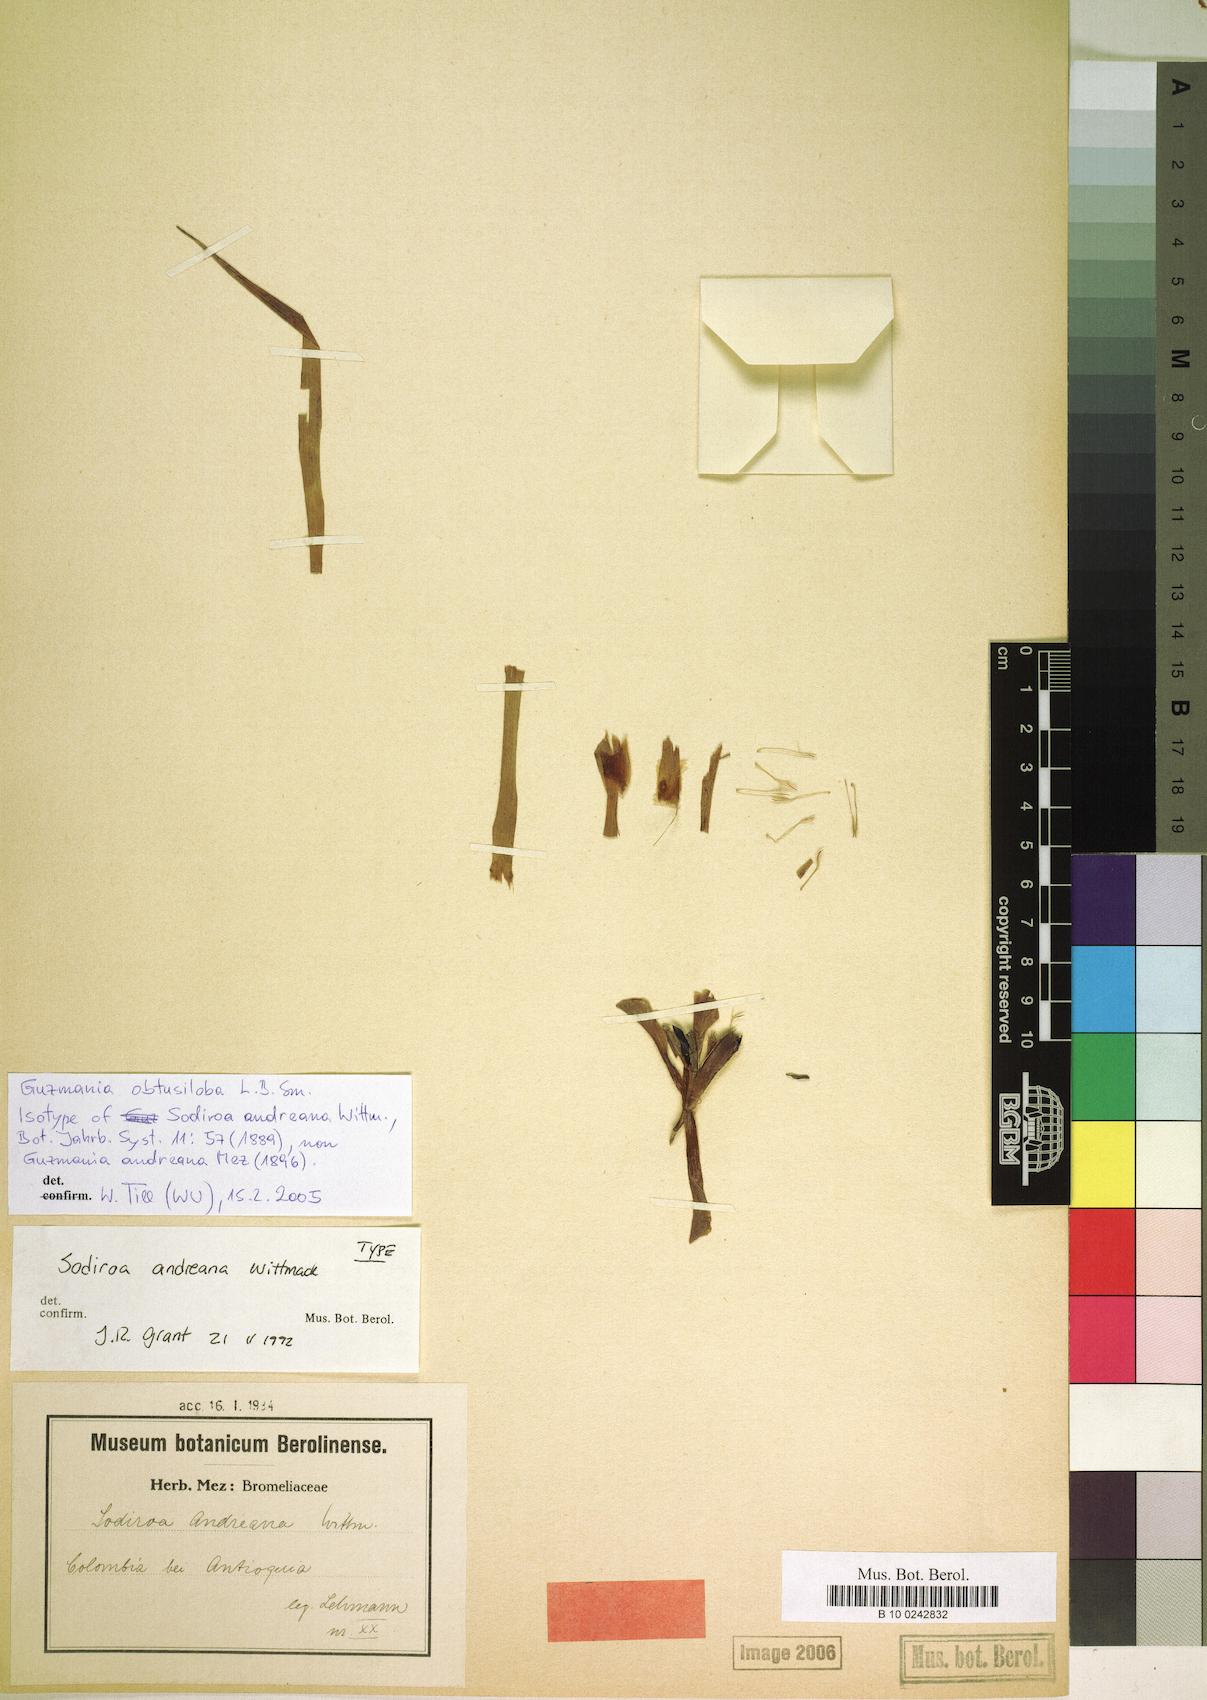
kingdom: Plantae
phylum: Tracheophyta
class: Liliopsida
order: Poales
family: Bromeliaceae
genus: Guzmania
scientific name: Guzmania pearcei
